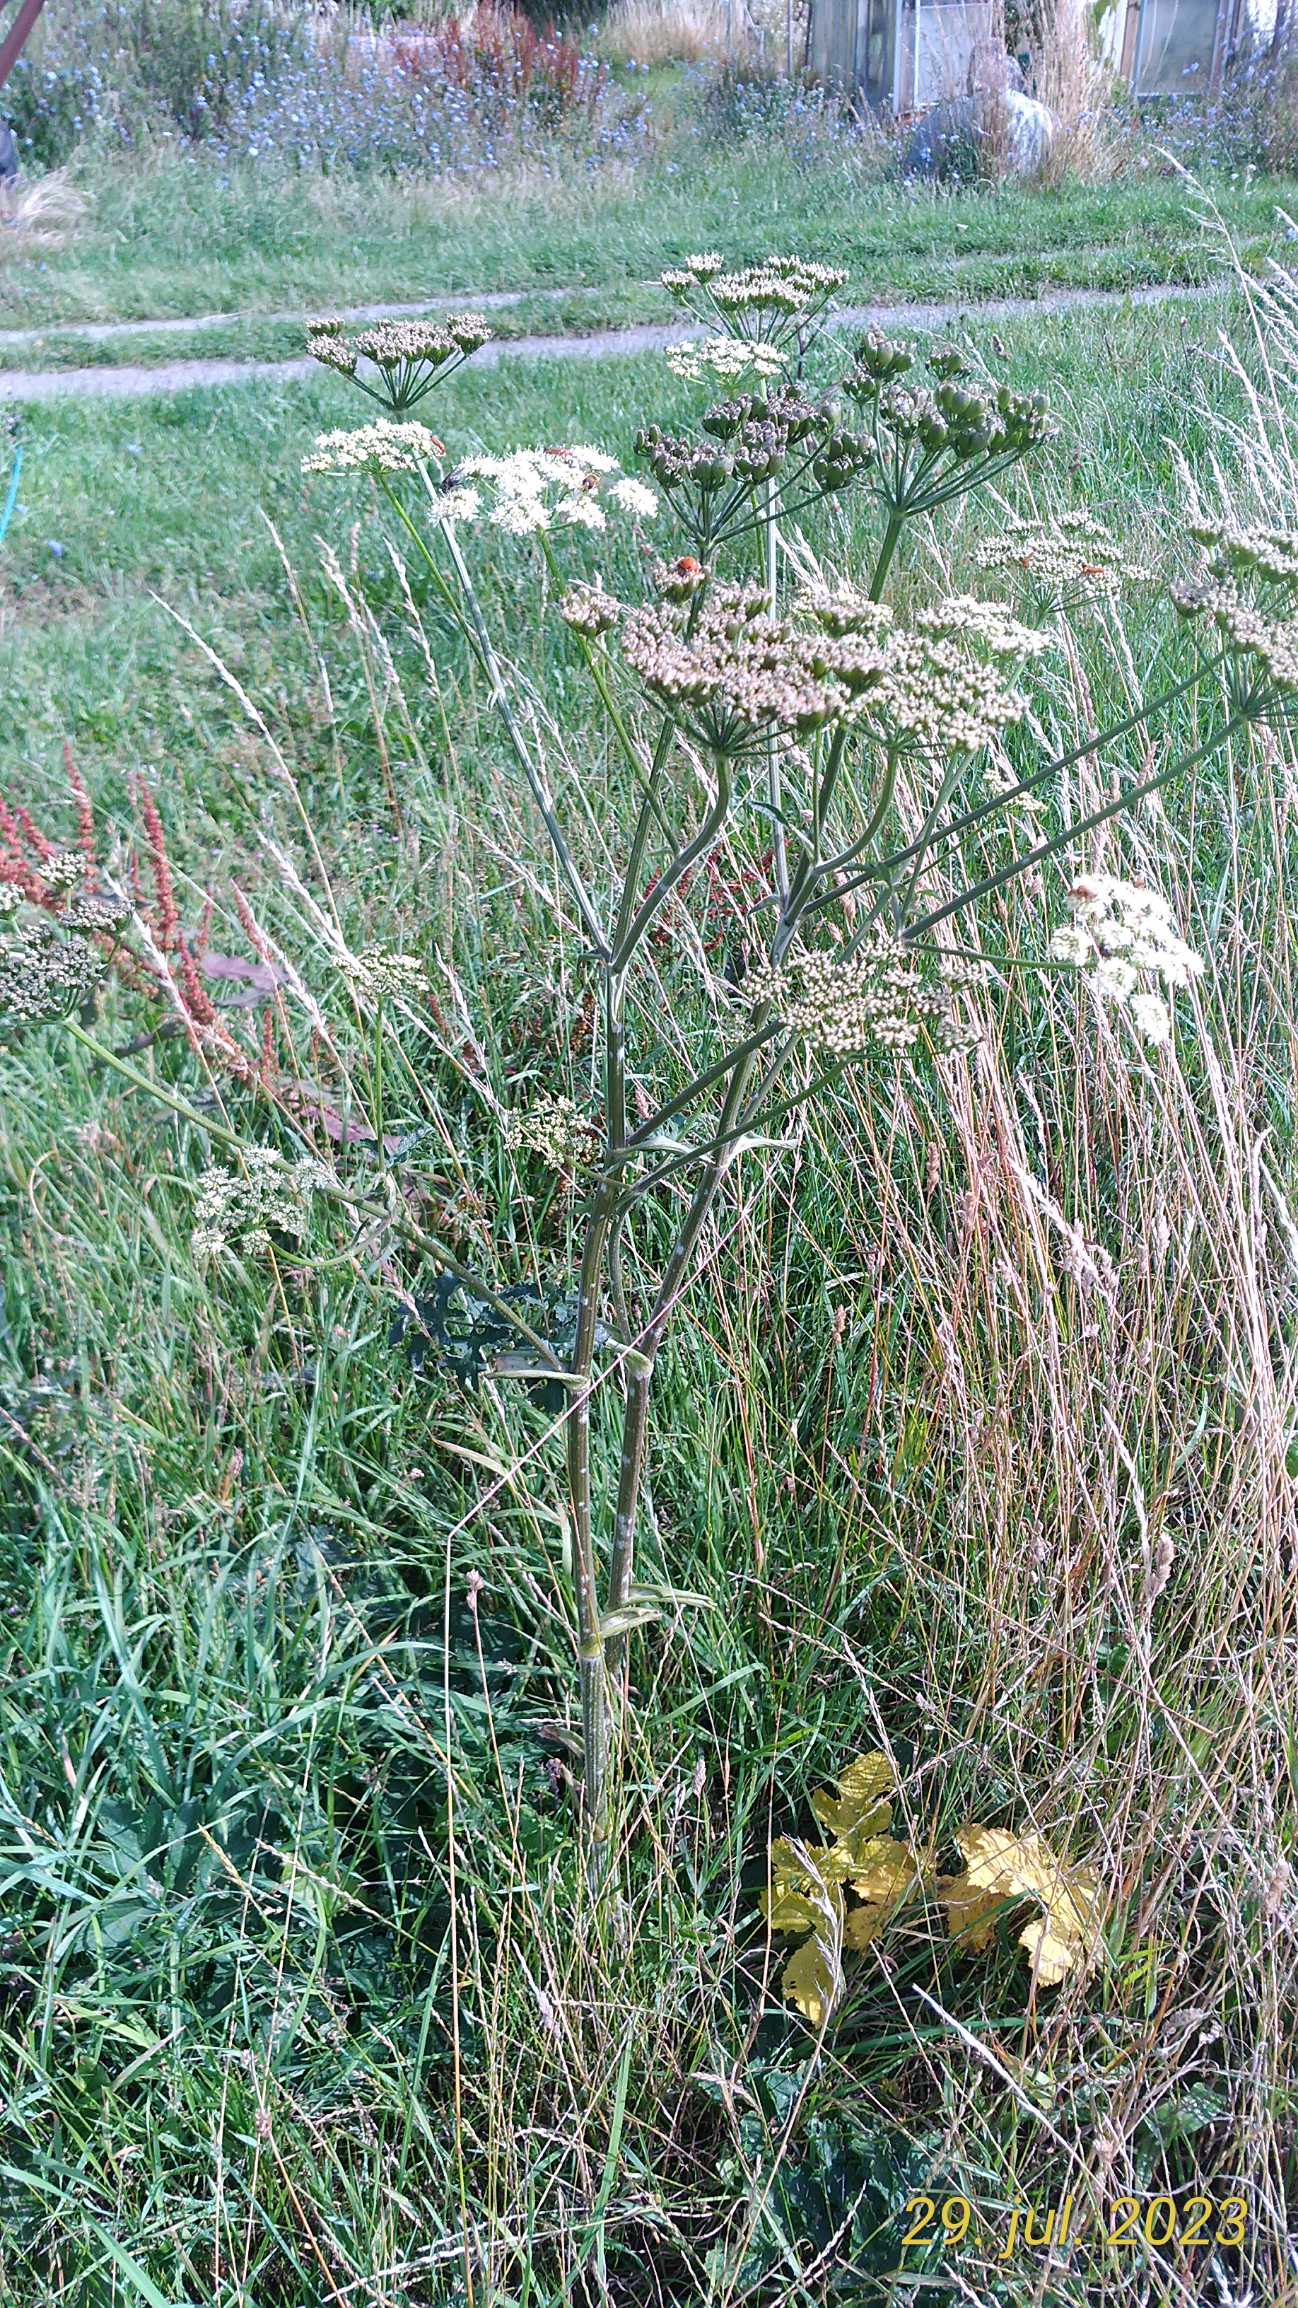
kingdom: Plantae
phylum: Tracheophyta
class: Magnoliopsida
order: Apiales
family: Apiaceae
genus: Heracleum
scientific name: Heracleum sphondylium
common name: Almindelig bjørneklo
